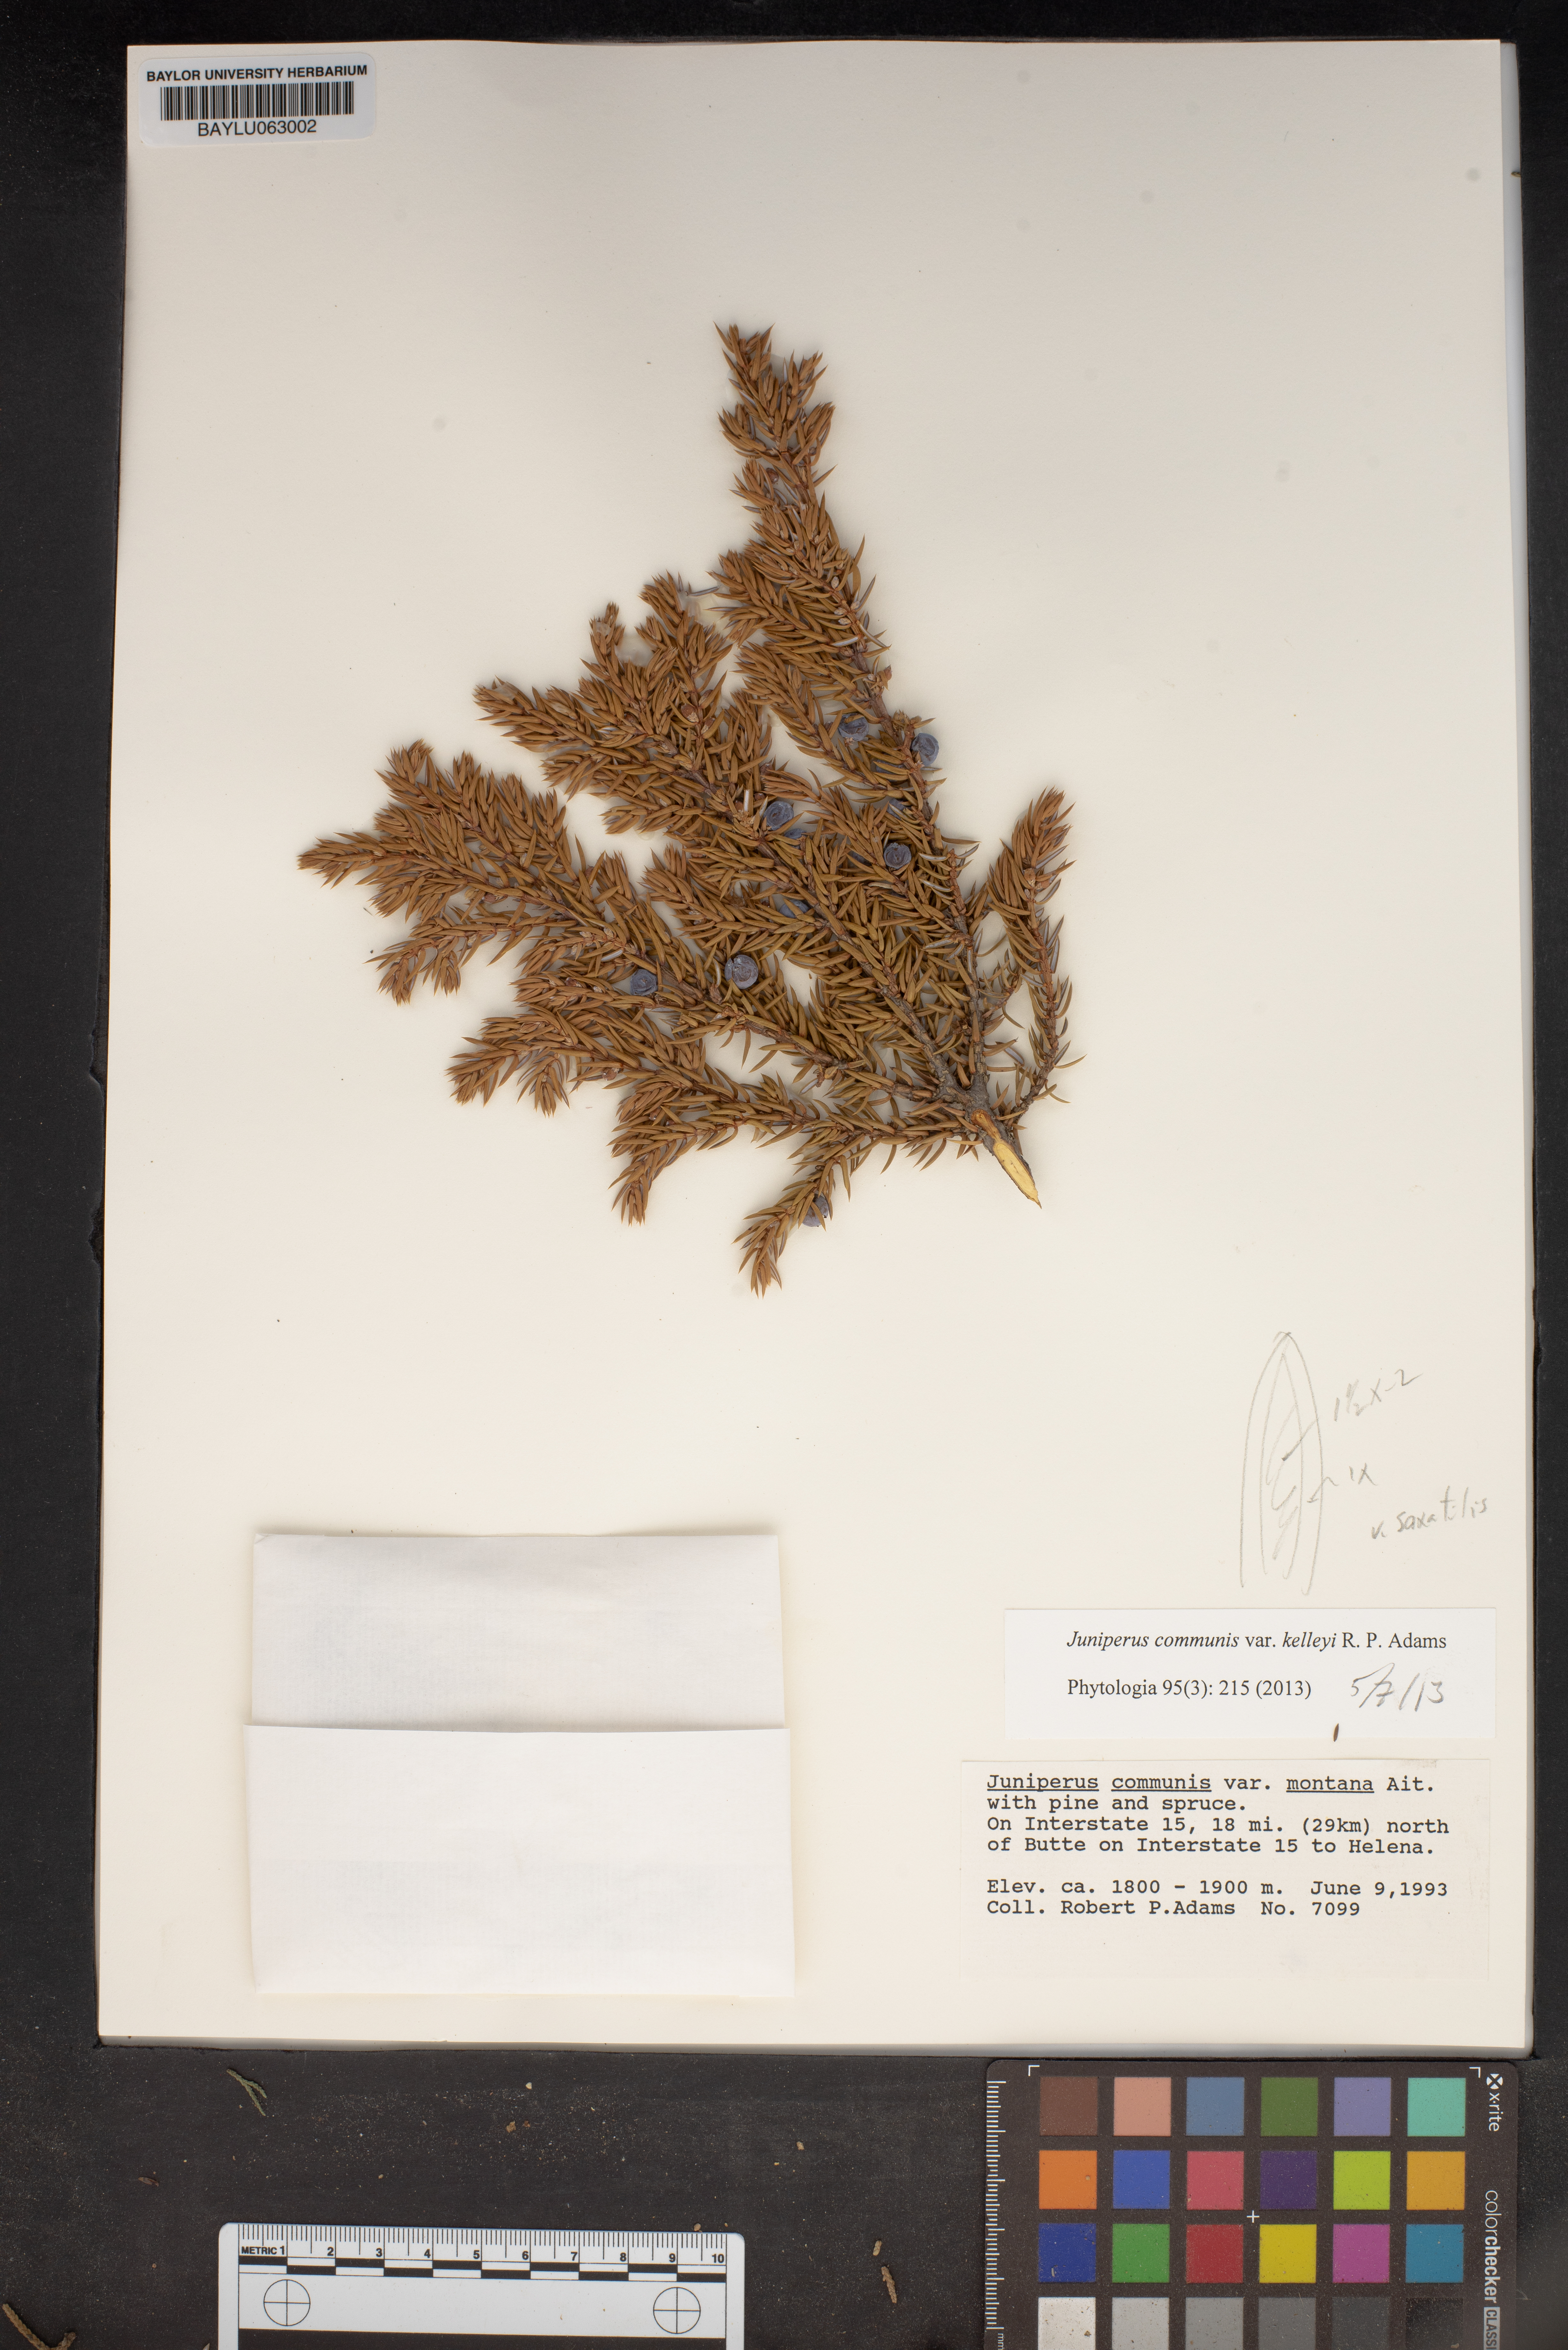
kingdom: Plantae
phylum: Tracheophyta
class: Pinopsida
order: Pinales
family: Cupressaceae
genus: Juniperus
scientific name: Juniperus communis
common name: Common juniper
